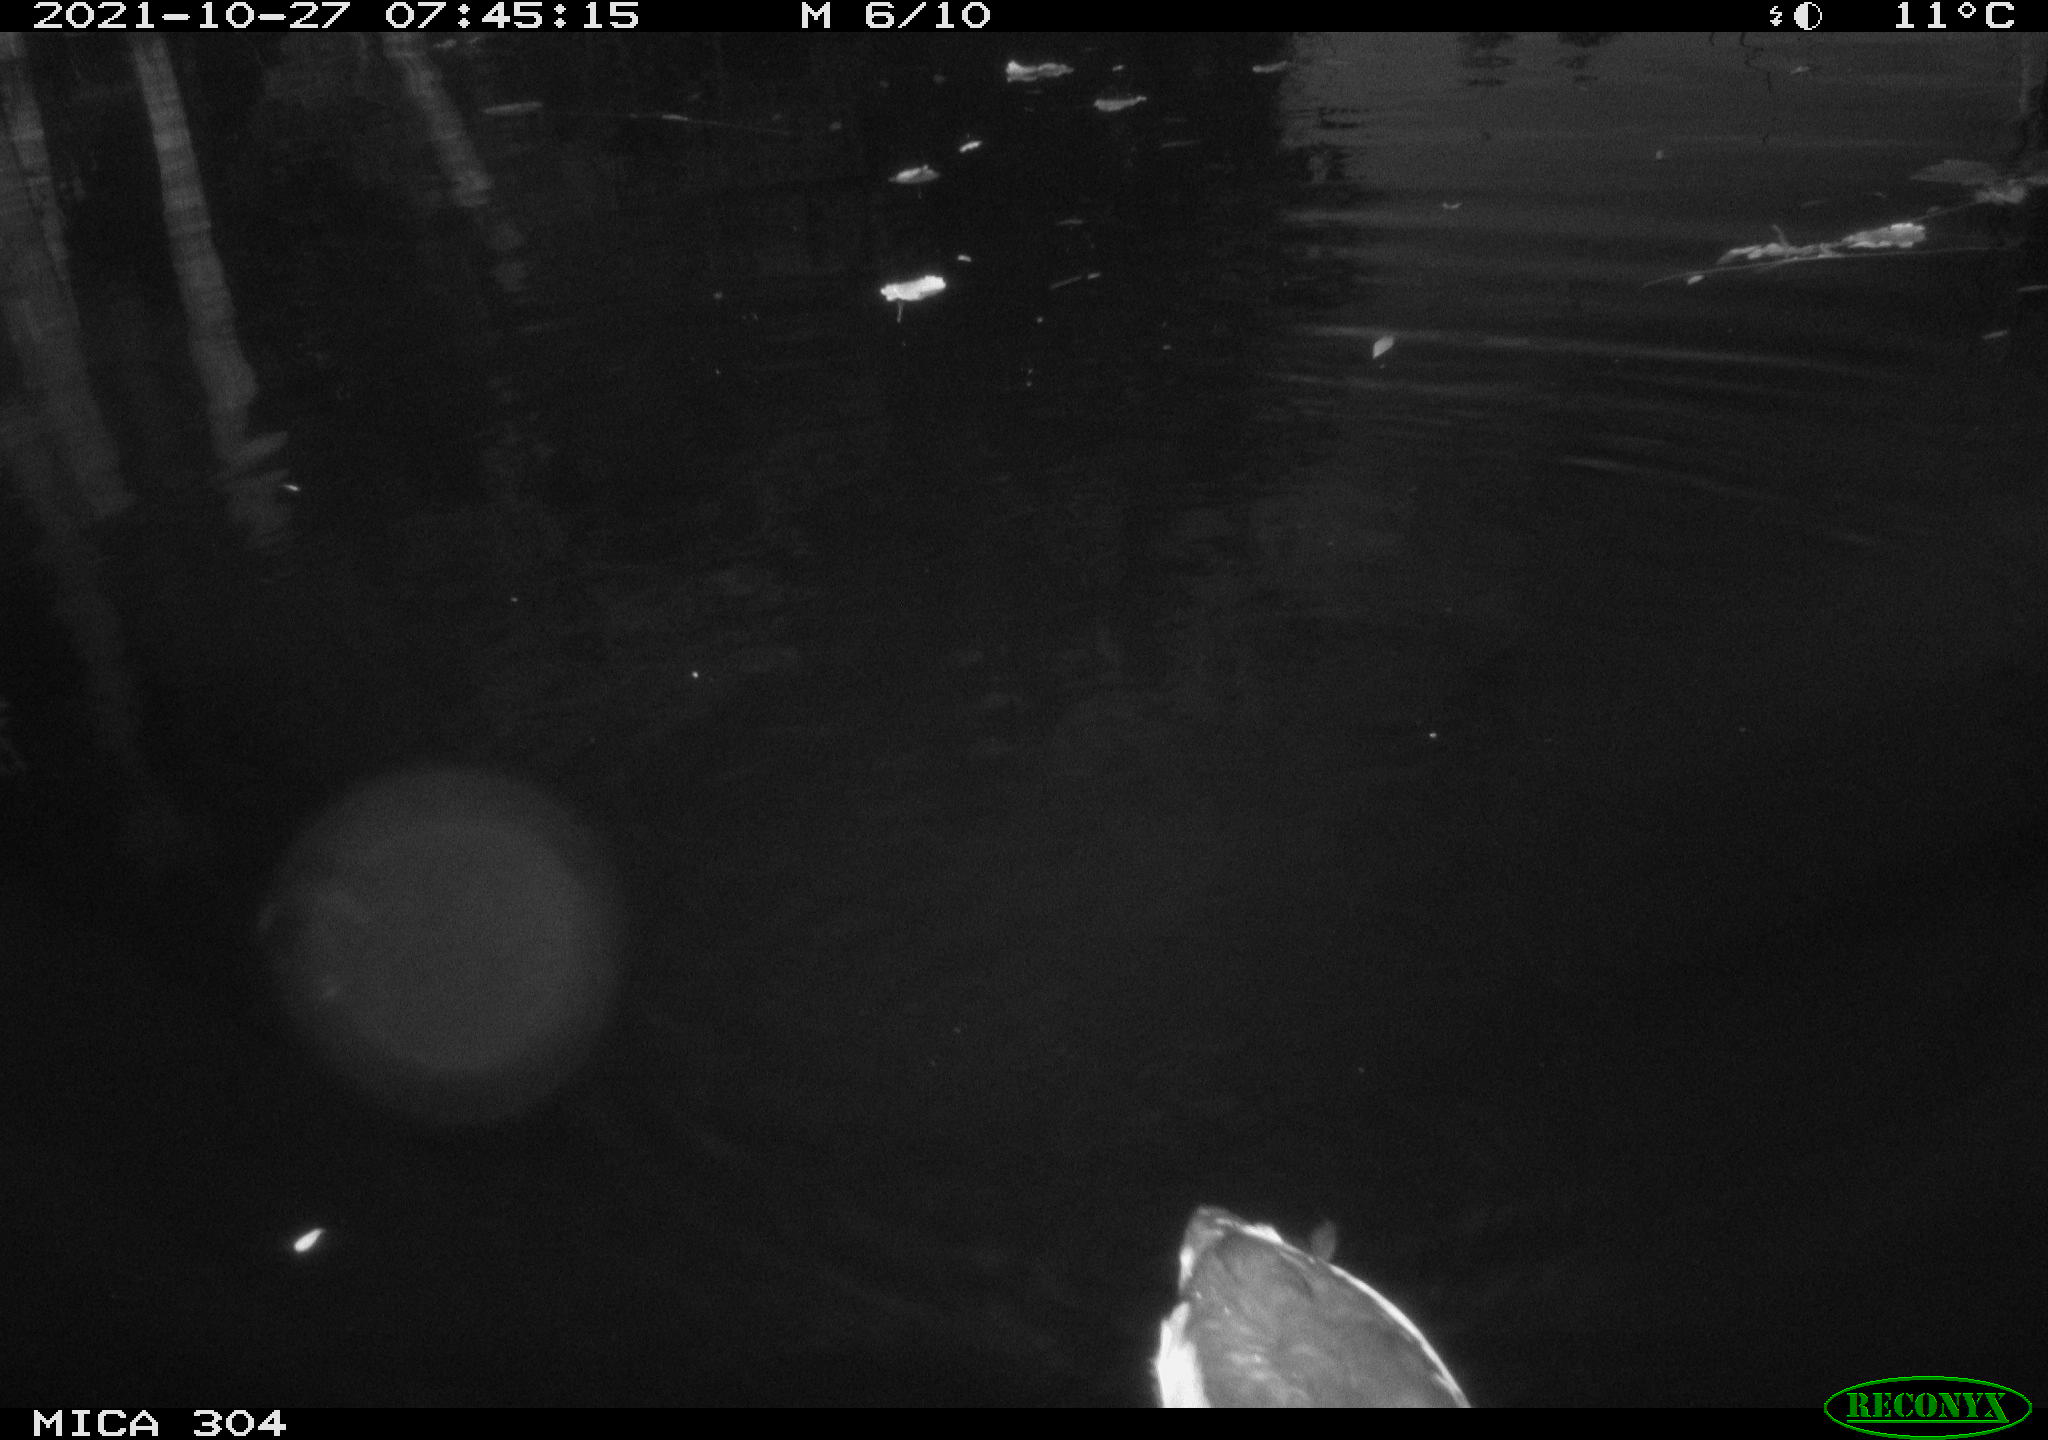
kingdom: Animalia
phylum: Chordata
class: Aves
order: Gruiformes
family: Rallidae
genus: Gallinula
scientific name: Gallinula chloropus
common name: Common moorhen
